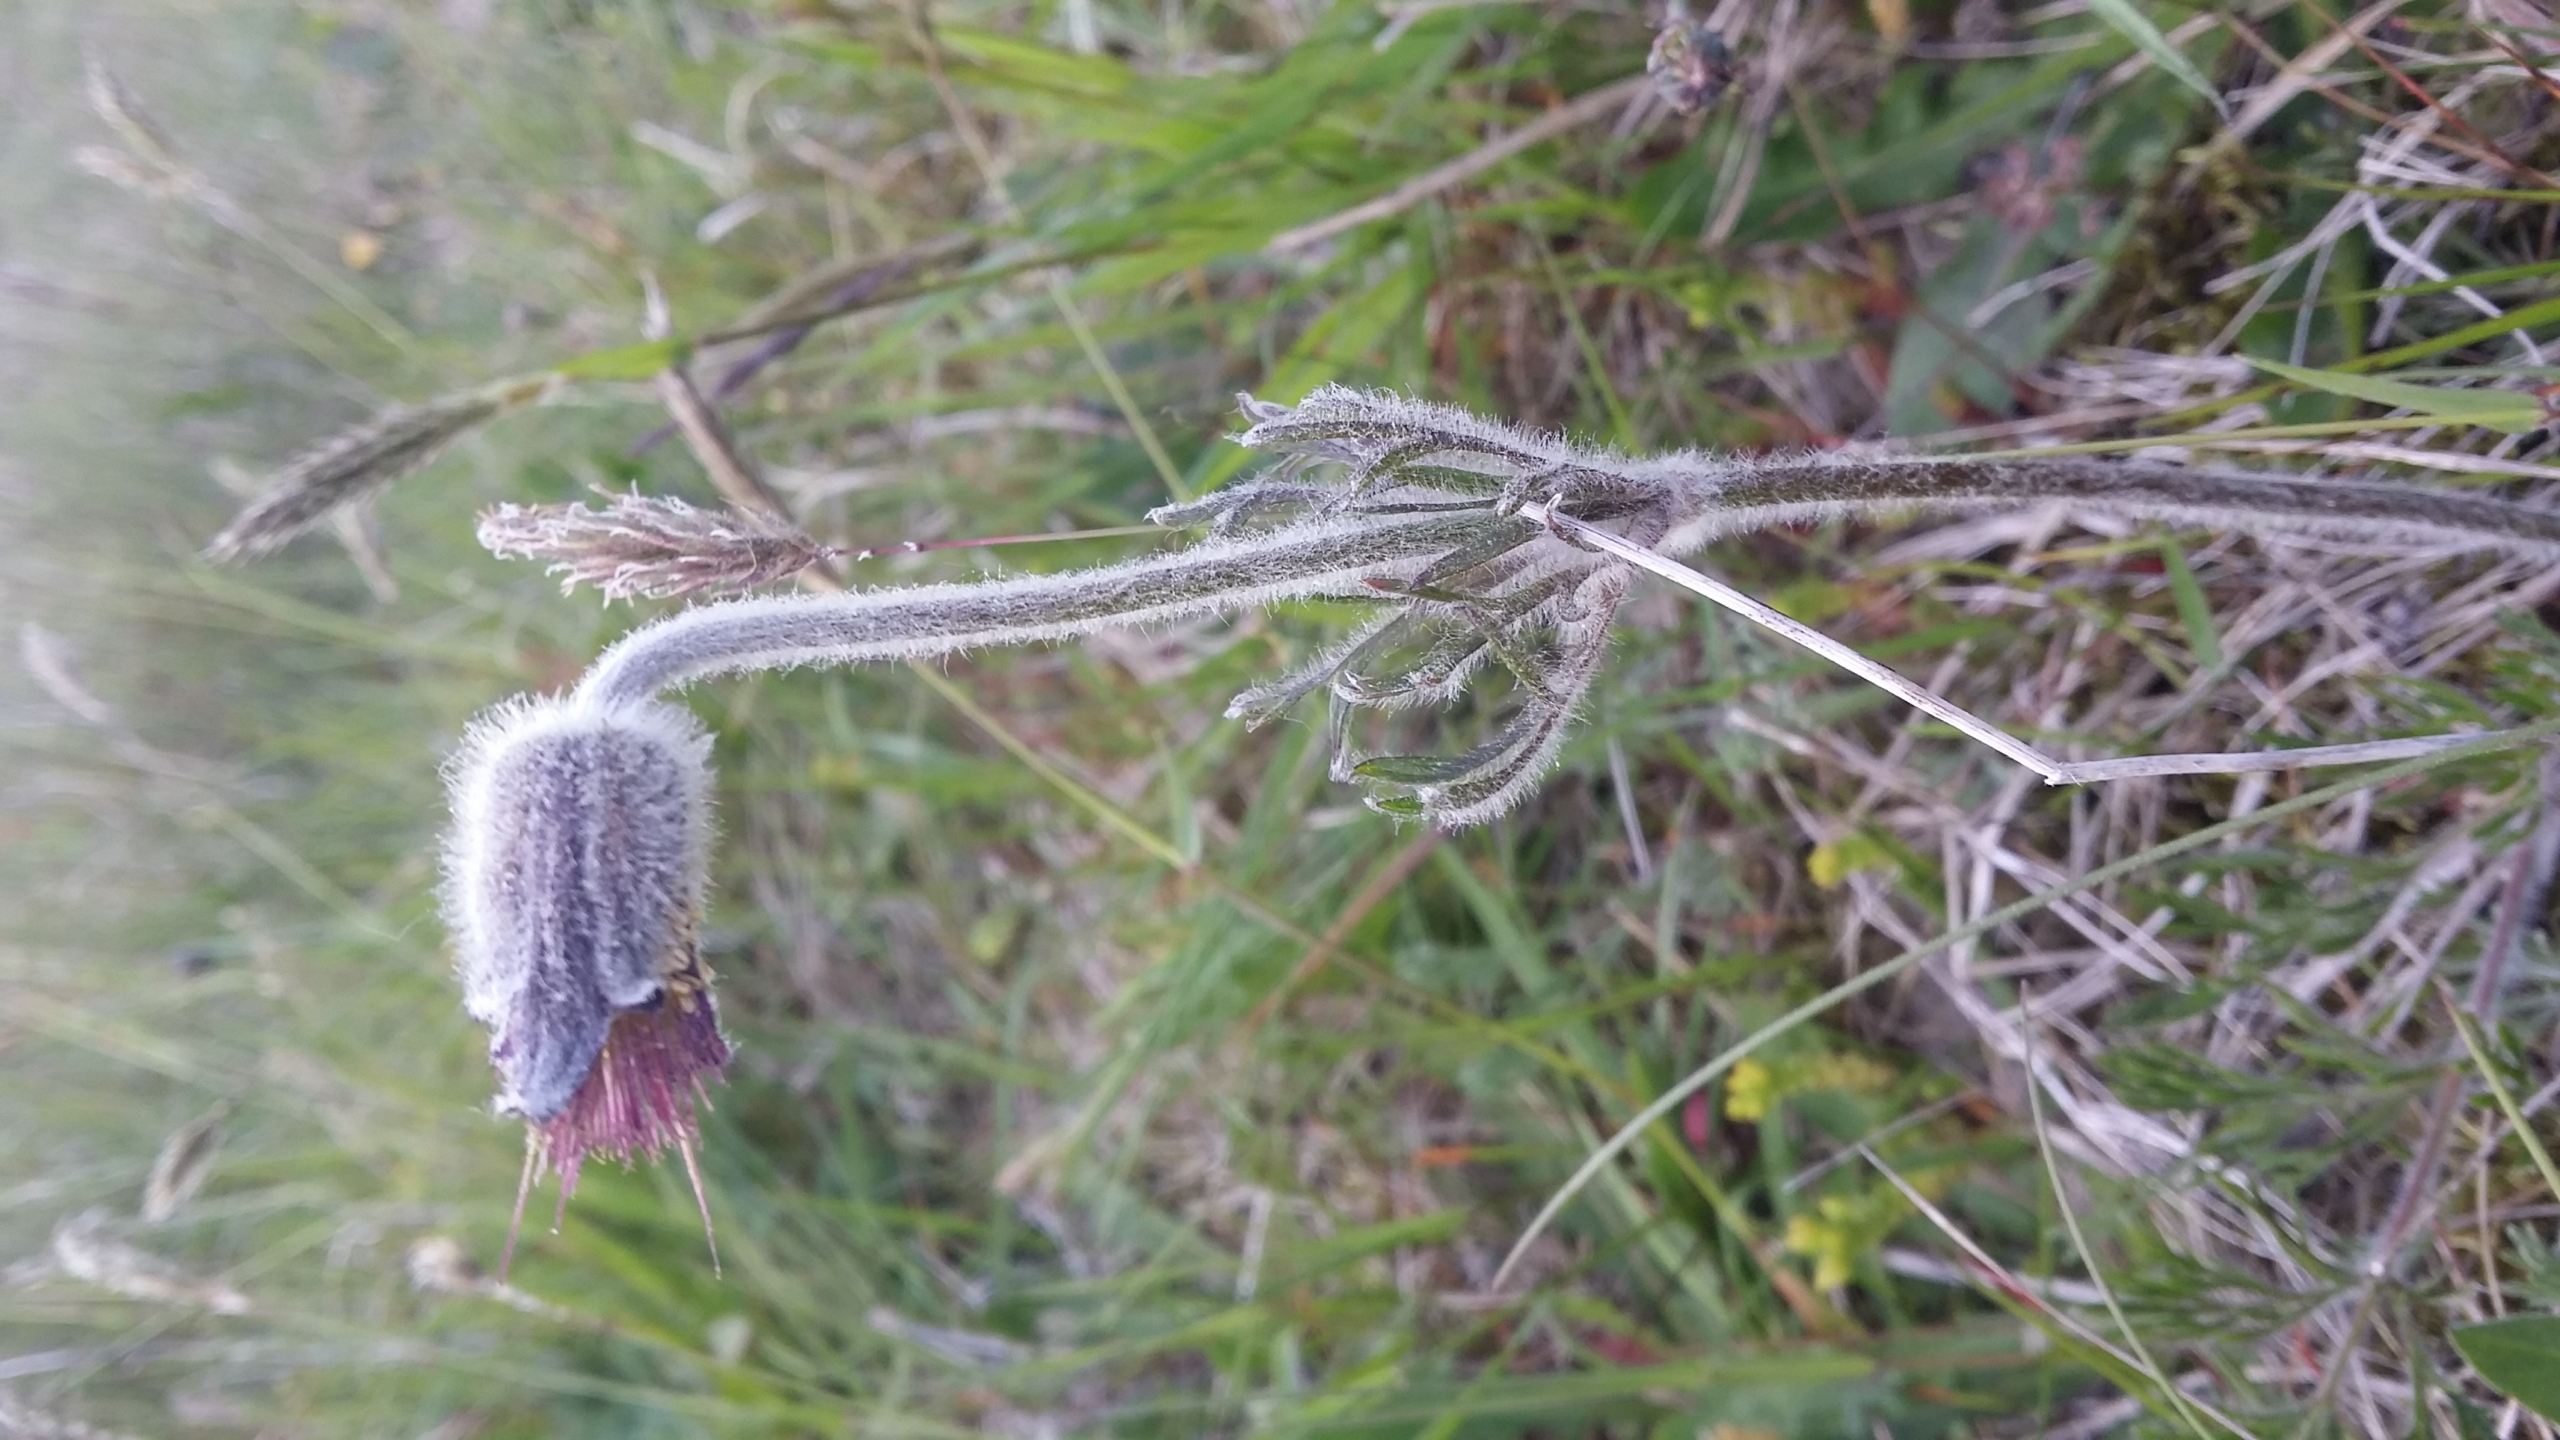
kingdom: Plantae
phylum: Tracheophyta
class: Magnoliopsida
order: Ranunculales
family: Ranunculaceae
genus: Pulsatilla
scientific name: Pulsatilla pratensis
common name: Nikkende kobjælde
